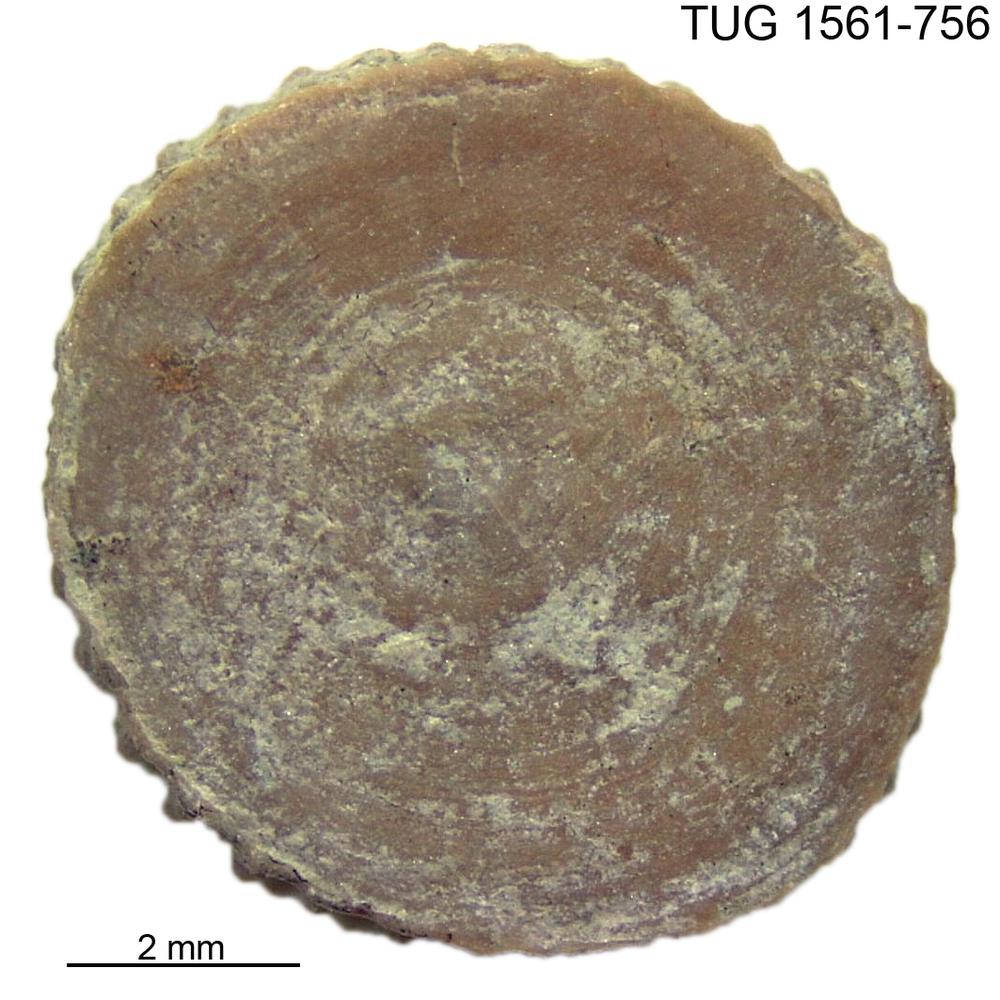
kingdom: Animalia
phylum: Cnidaria
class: Anthozoa
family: Palaeocyclidae
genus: Palaeocyclus
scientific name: Palaeocyclus Porpites porpita
